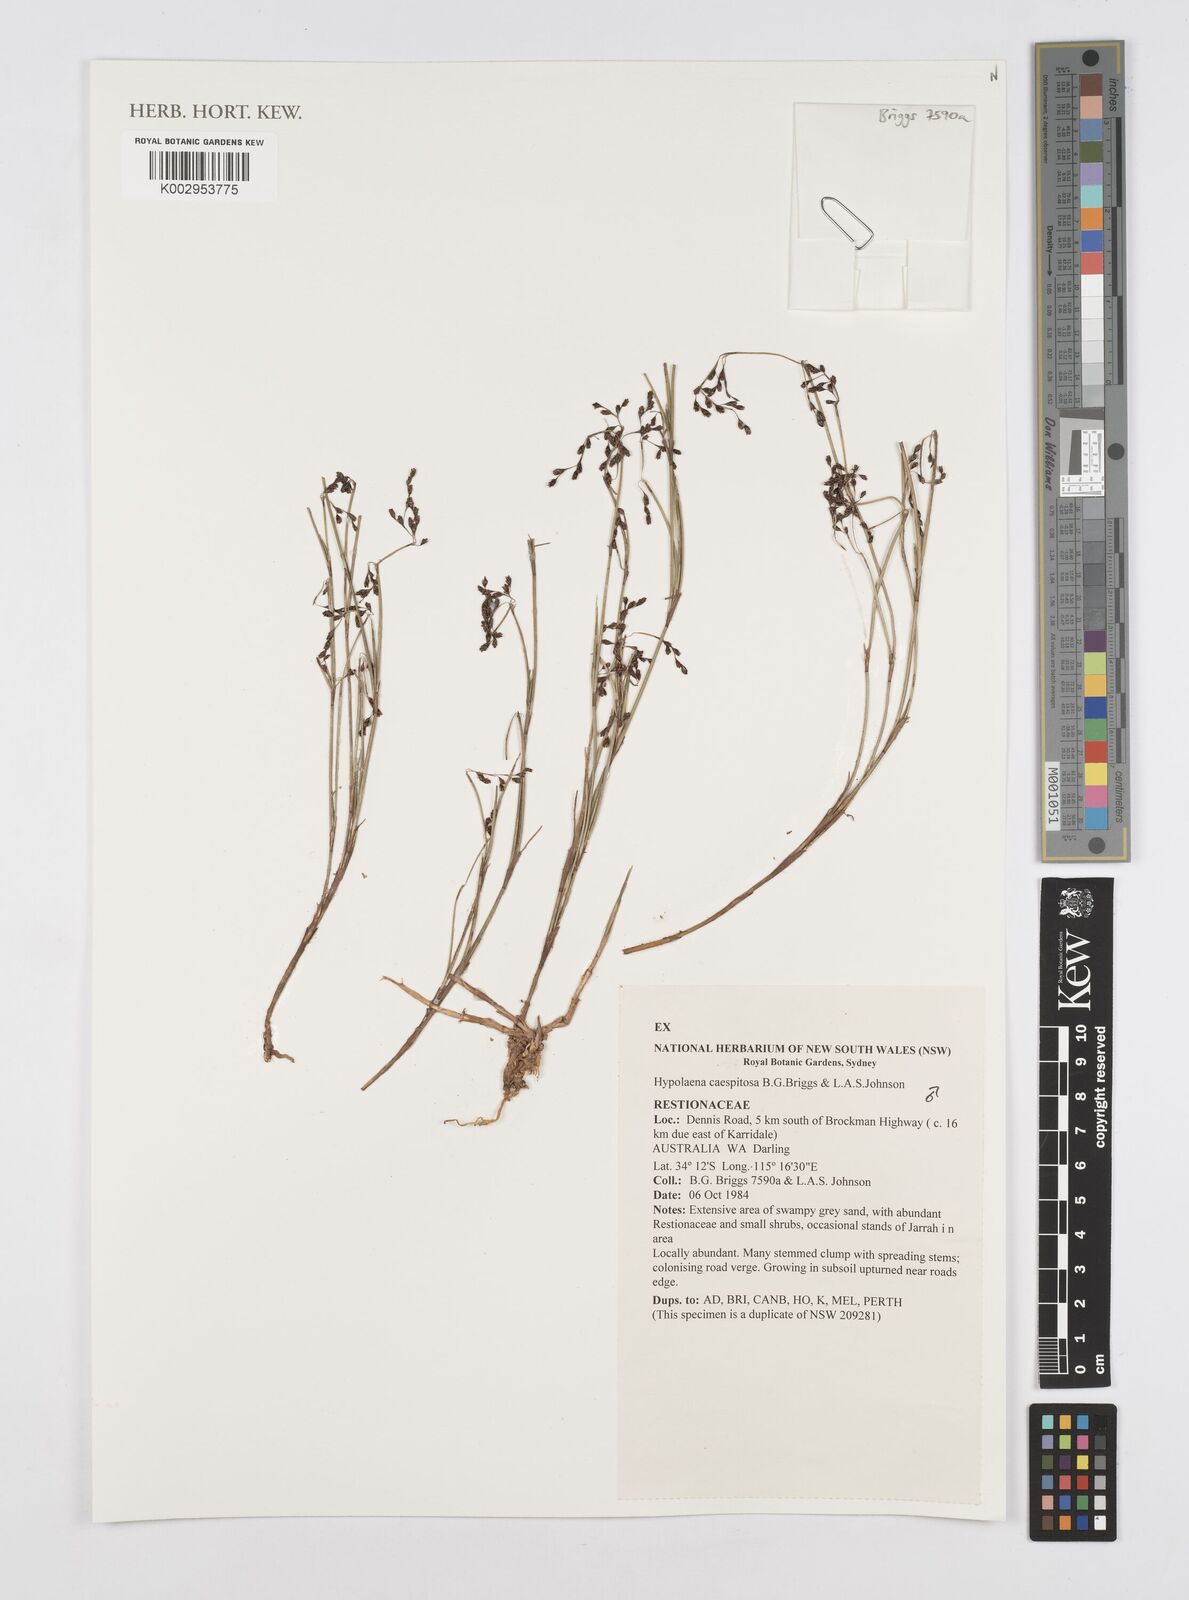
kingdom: Plantae
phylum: Tracheophyta
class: Liliopsida
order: Poales
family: Restionaceae
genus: Hypolaena
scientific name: Hypolaena caespitosa
